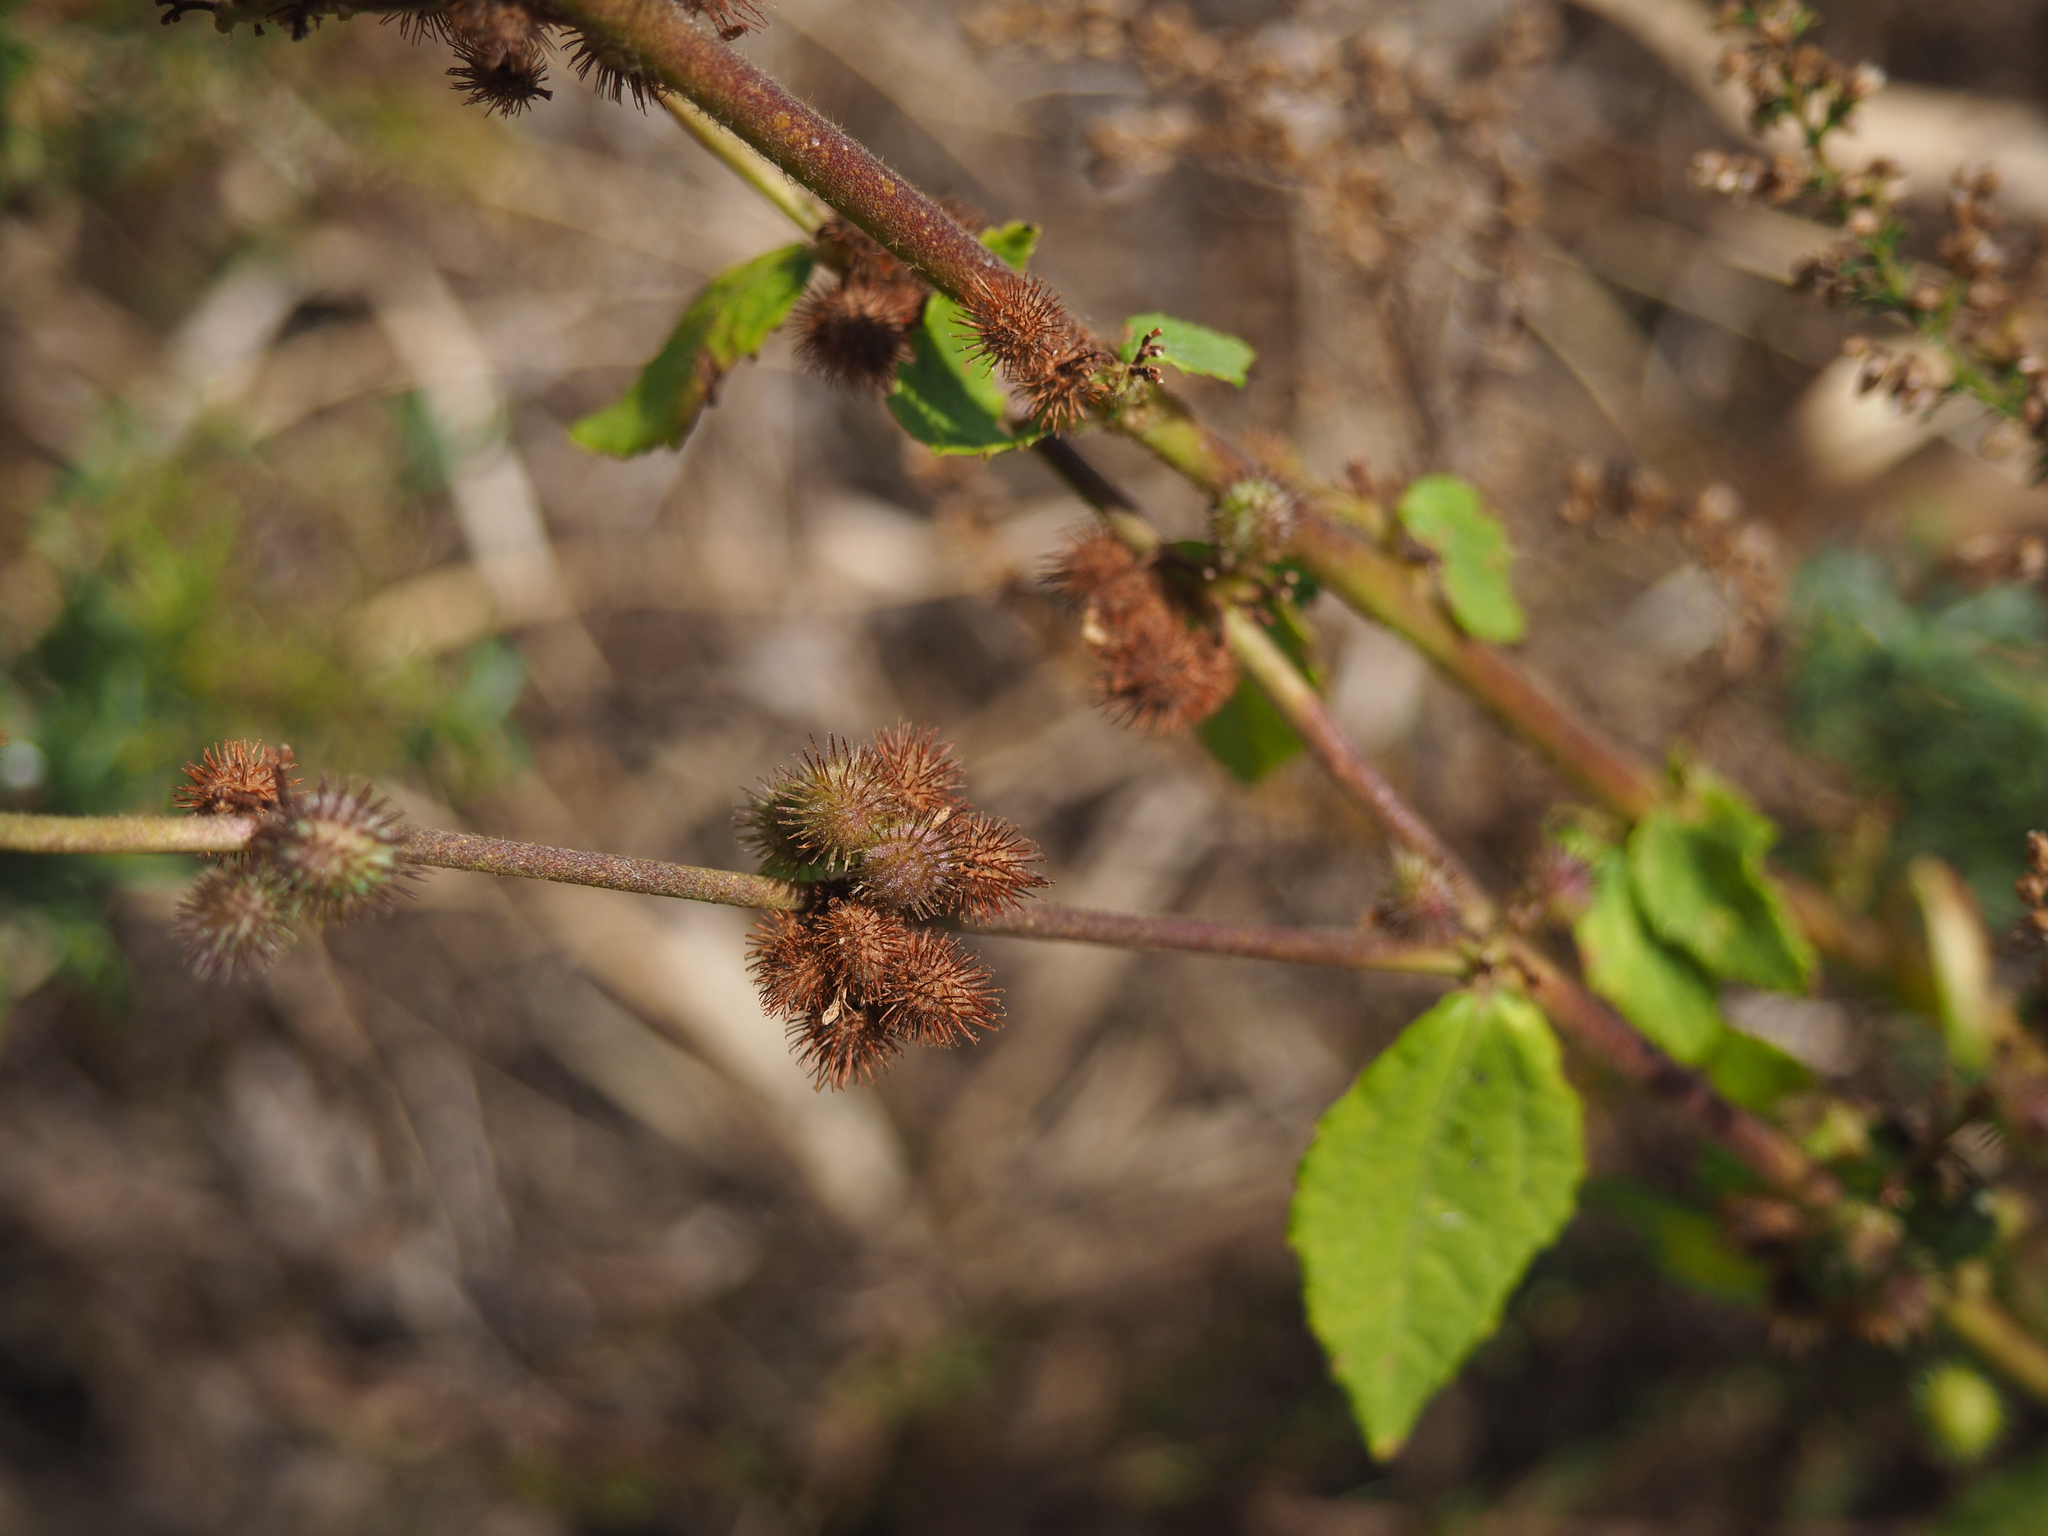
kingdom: Plantae
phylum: Tracheophyta
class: Magnoliopsida
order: Malvales
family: Malvaceae
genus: Triumfetta
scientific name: Triumfetta rhomboidea
